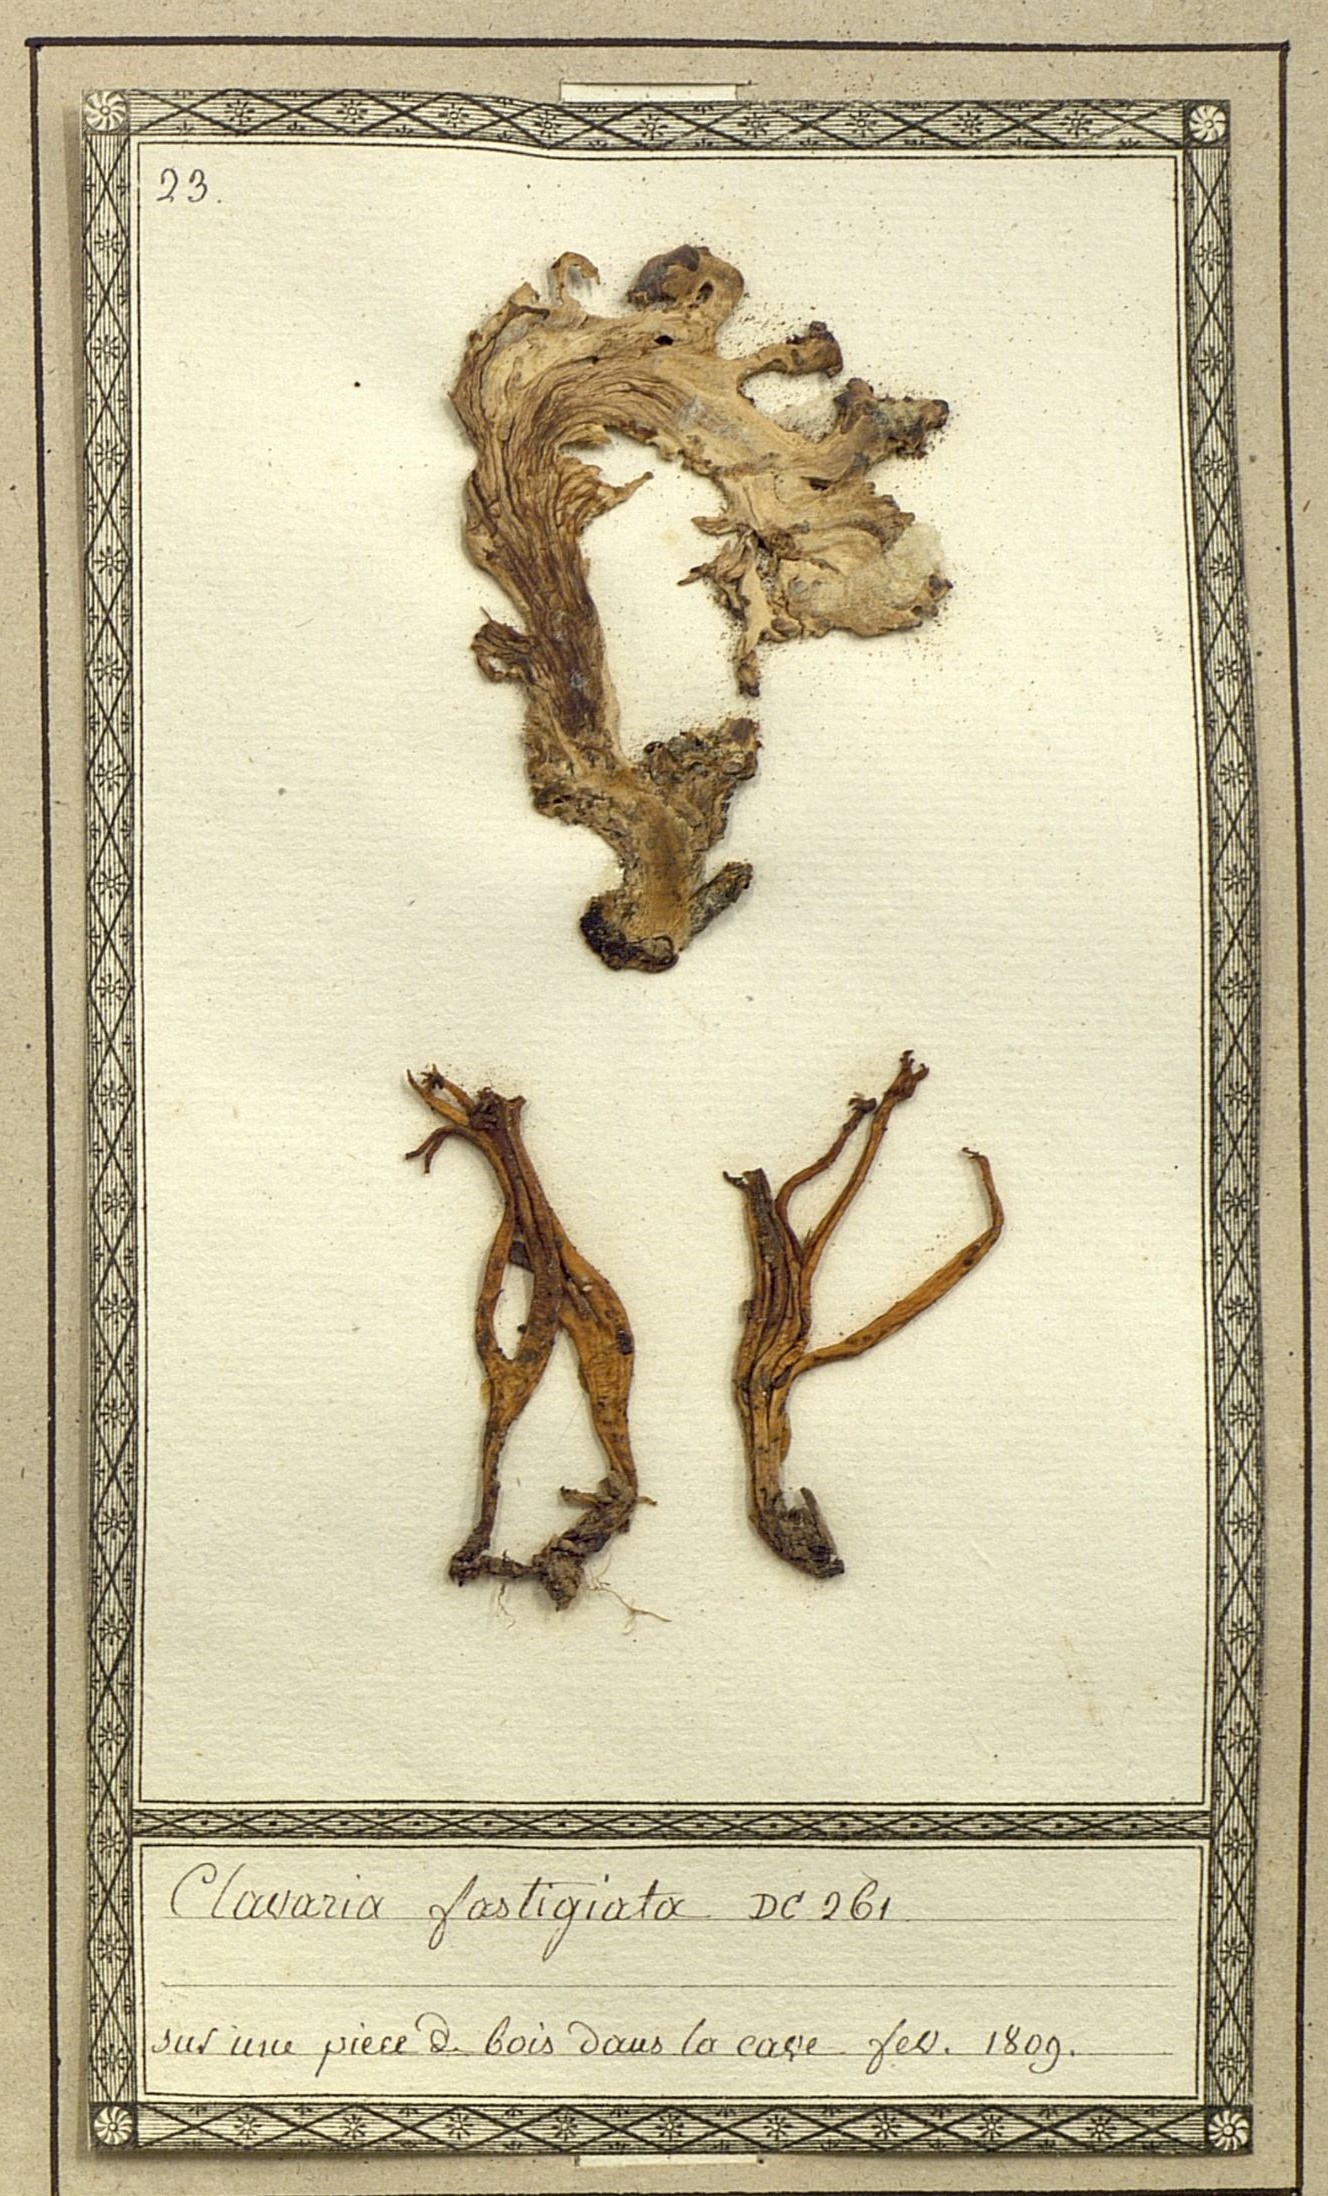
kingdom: Fungi
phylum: Basidiomycota
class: Agaricomycetes
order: Agaricales
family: Clavariaceae
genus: Clavulinopsis
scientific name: Clavulinopsis corniculata
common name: Meadow coral
